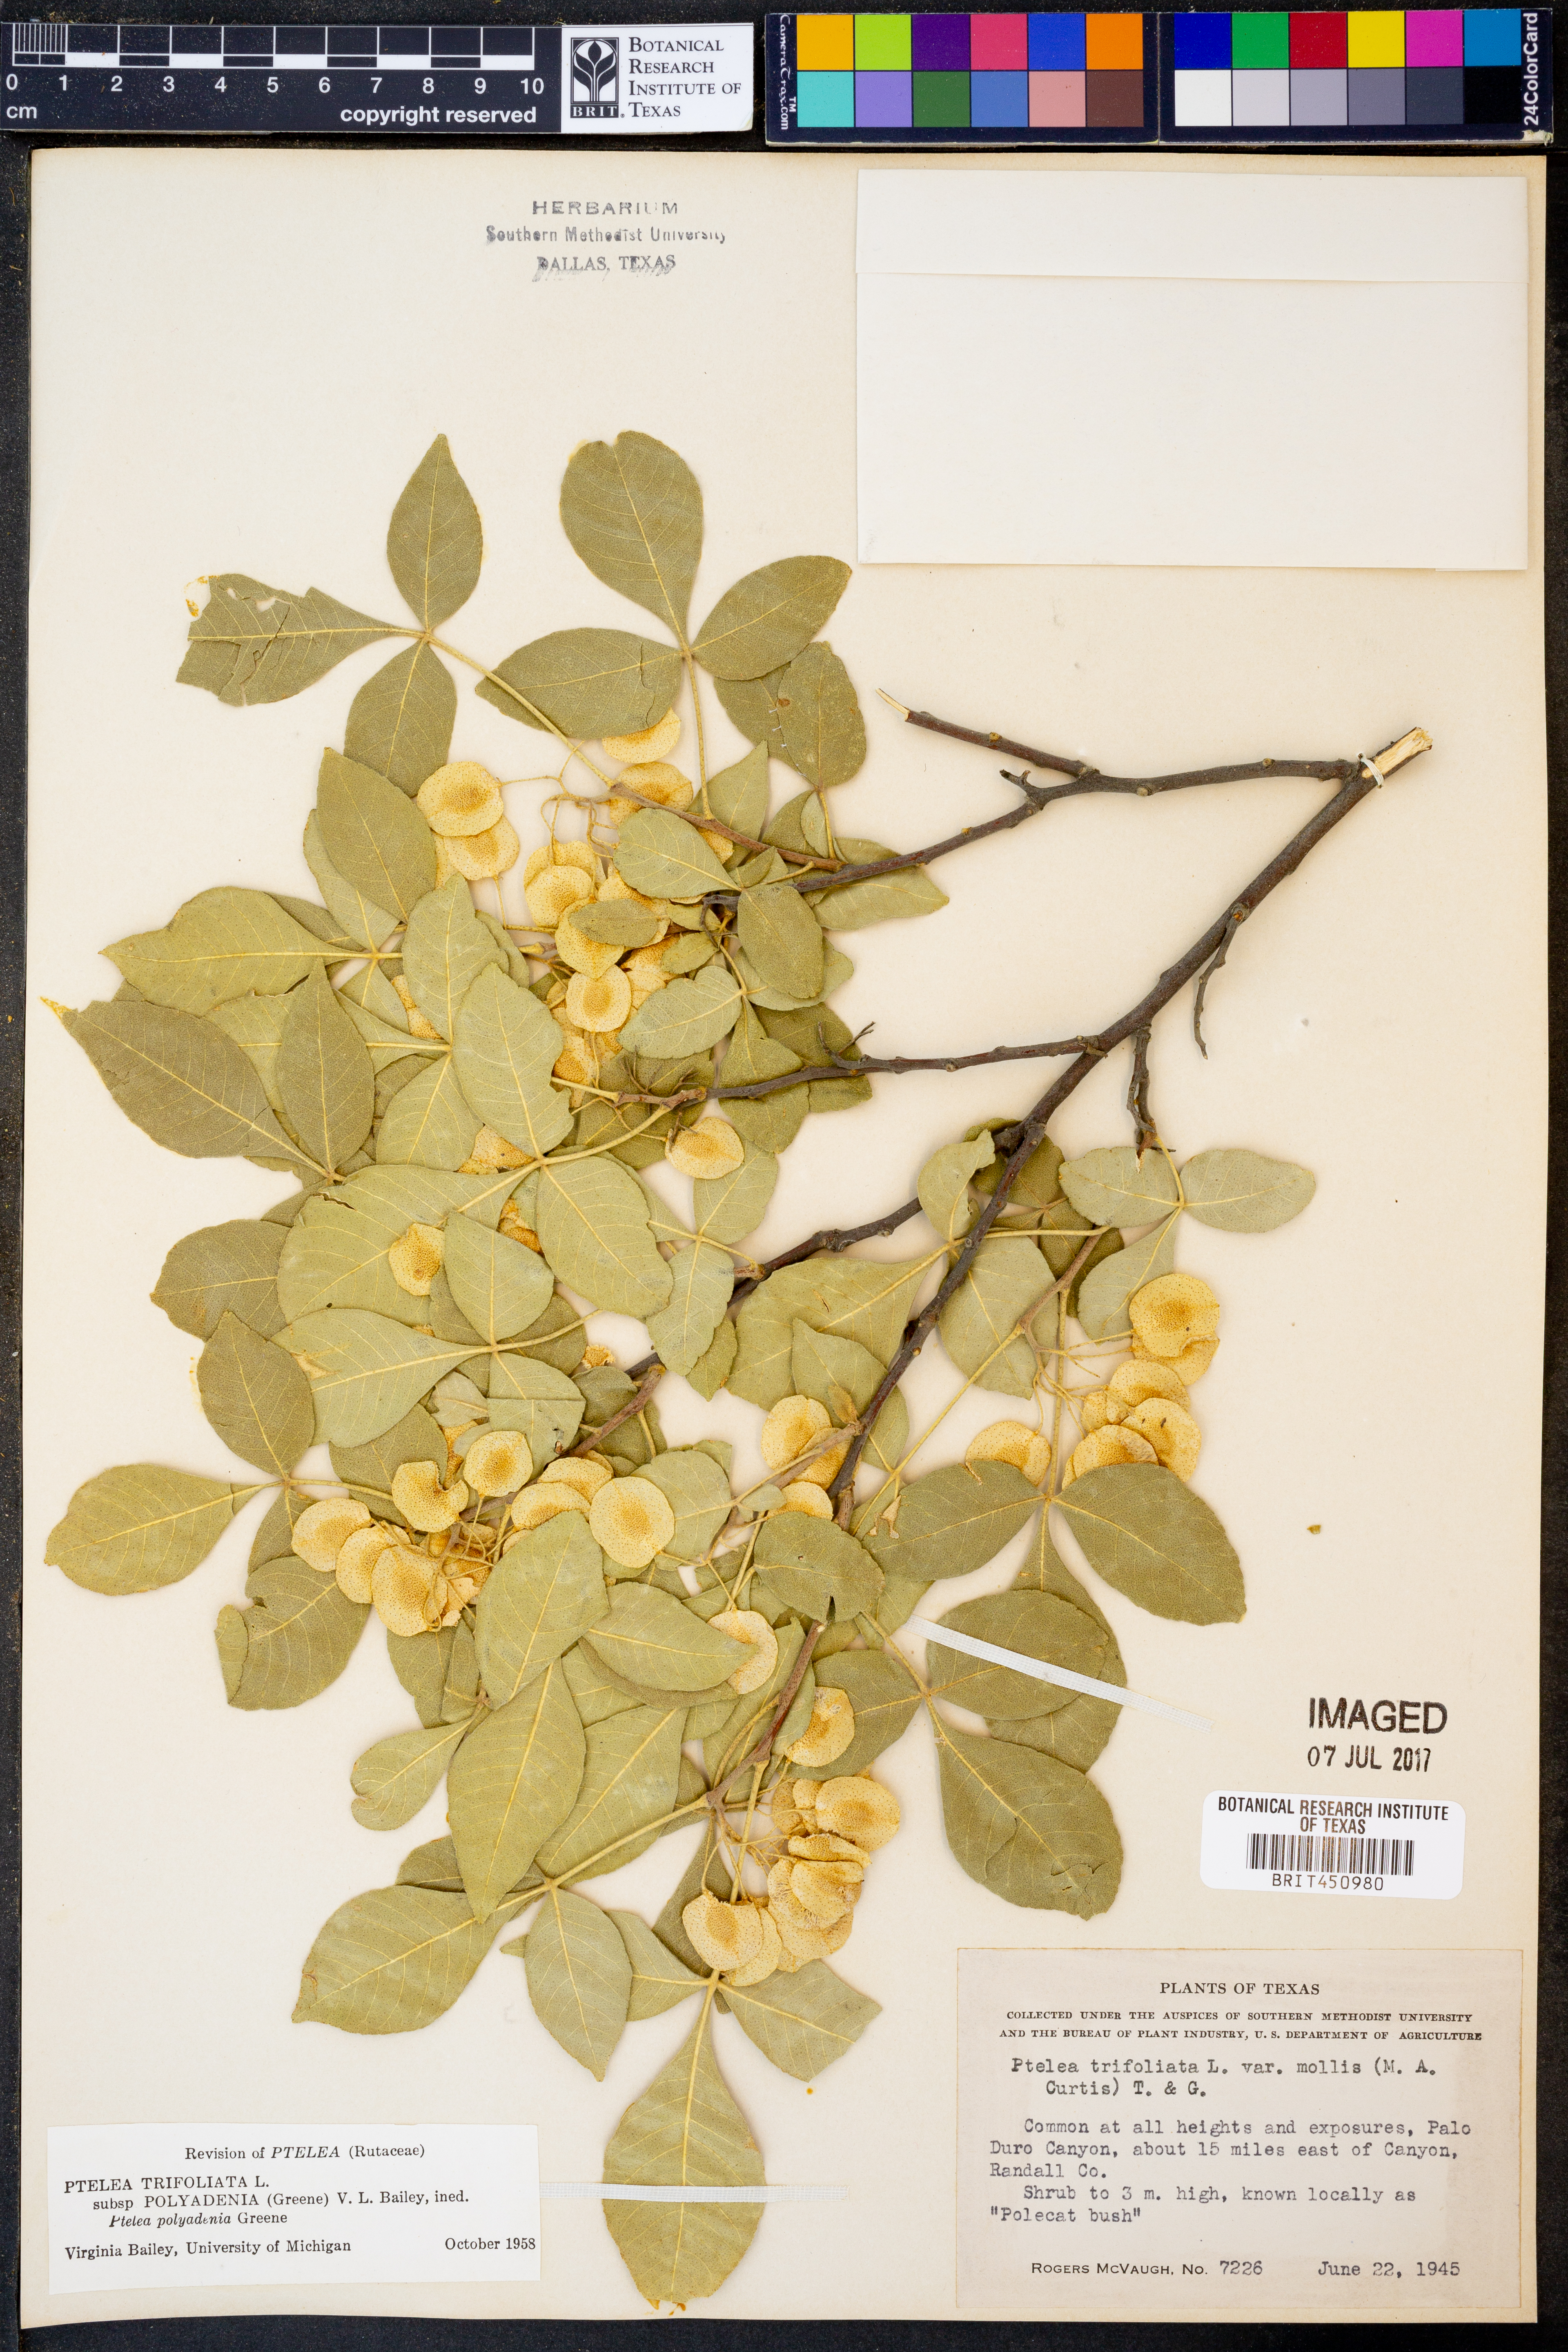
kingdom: Plantae
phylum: Tracheophyta
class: Magnoliopsida
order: Sapindales
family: Rutaceae
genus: Ptelea
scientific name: Ptelea trifoliata
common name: Common hop-tree
